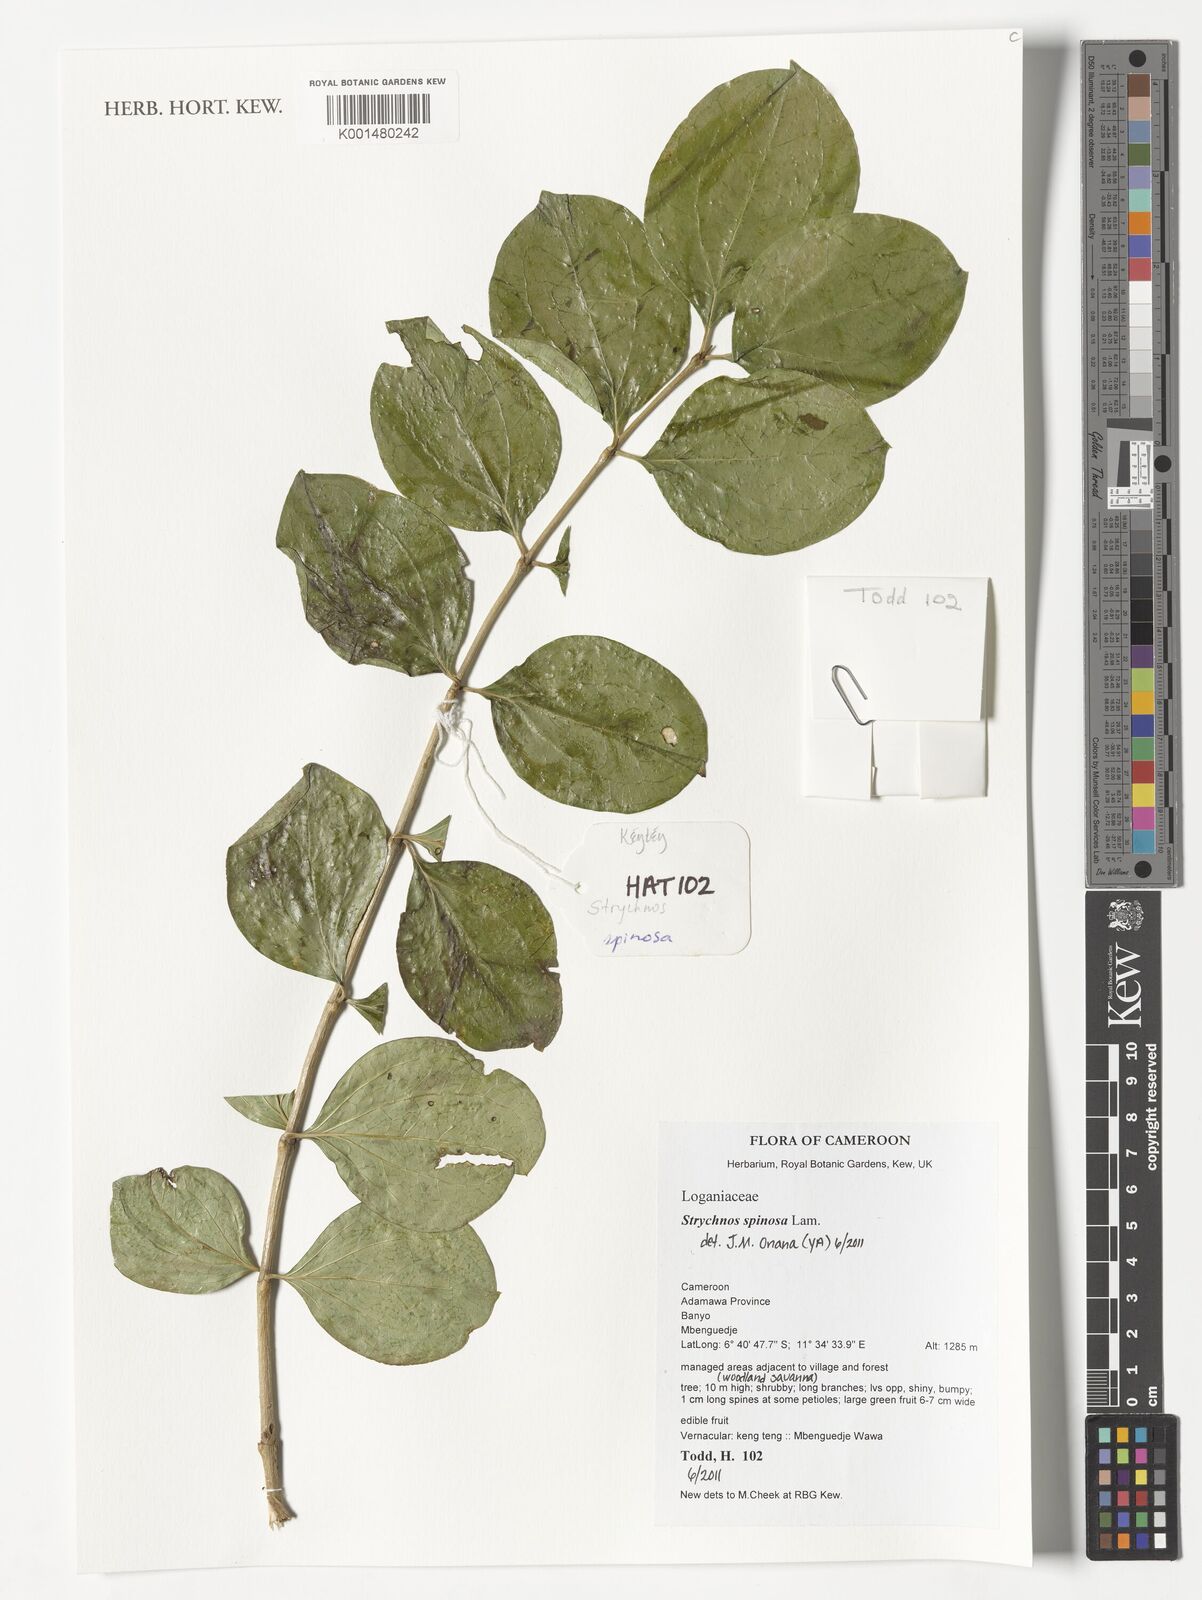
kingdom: Plantae
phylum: Tracheophyta
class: Magnoliopsida
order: Gentianales
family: Loganiaceae
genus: Strychnos
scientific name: Strychnos spinosa
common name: Natal orange
